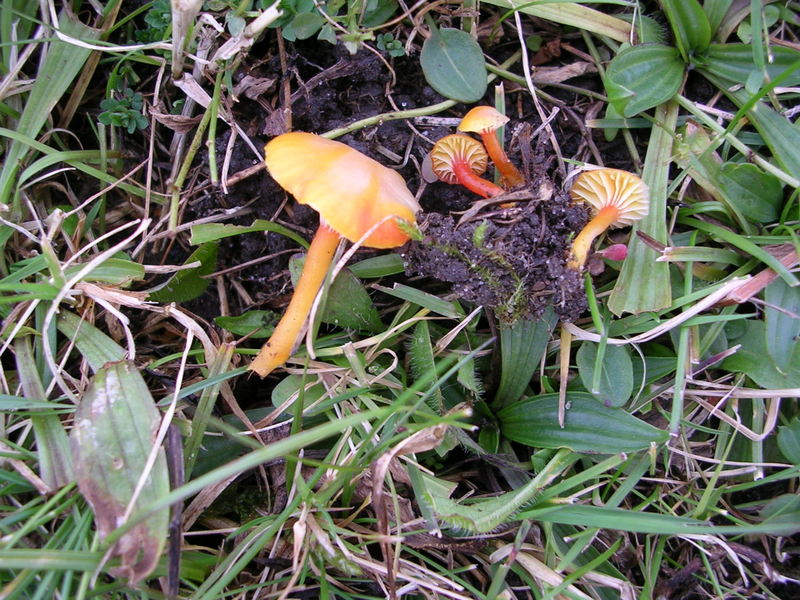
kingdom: Fungi
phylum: Basidiomycota
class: Agaricomycetes
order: Agaricales
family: Hygrophoraceae
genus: Hygrocybe
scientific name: Hygrocybe insipida
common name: liden vokshat
